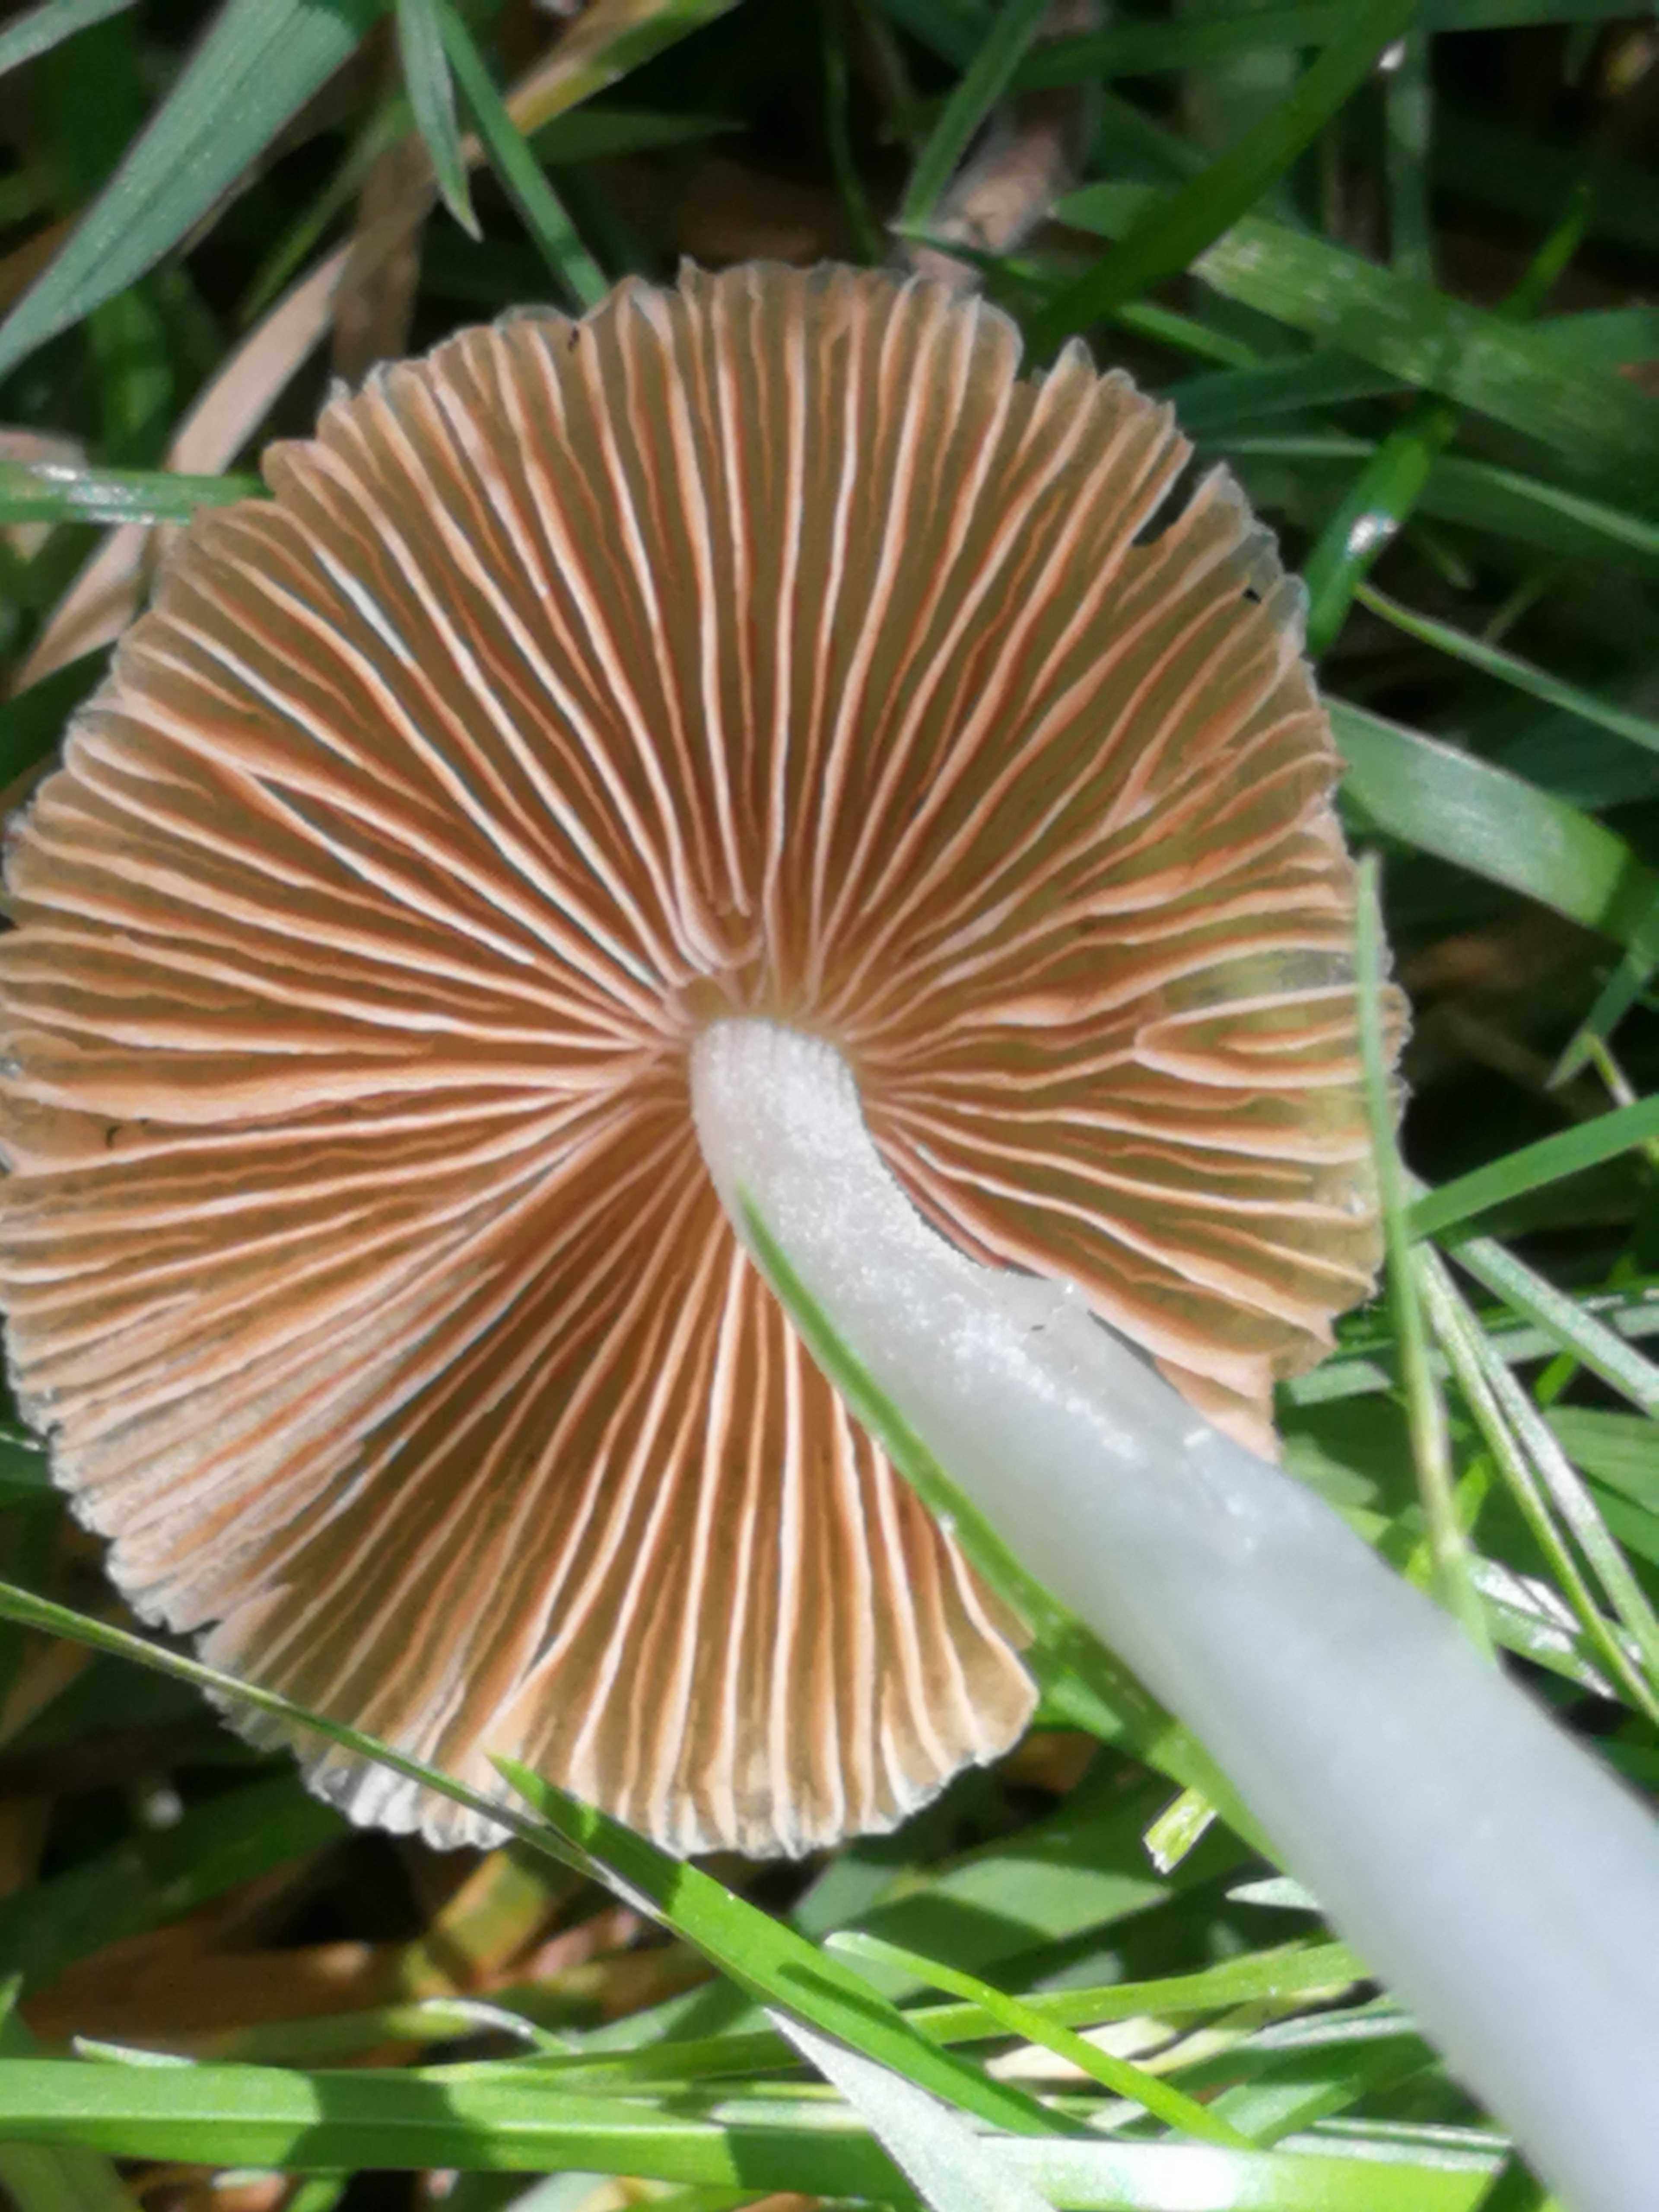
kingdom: Fungi
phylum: Basidiomycota
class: Agaricomycetes
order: Agaricales
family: Bolbitiaceae
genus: Bolbitius
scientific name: Bolbitius titubans
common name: almindelig gulhat
